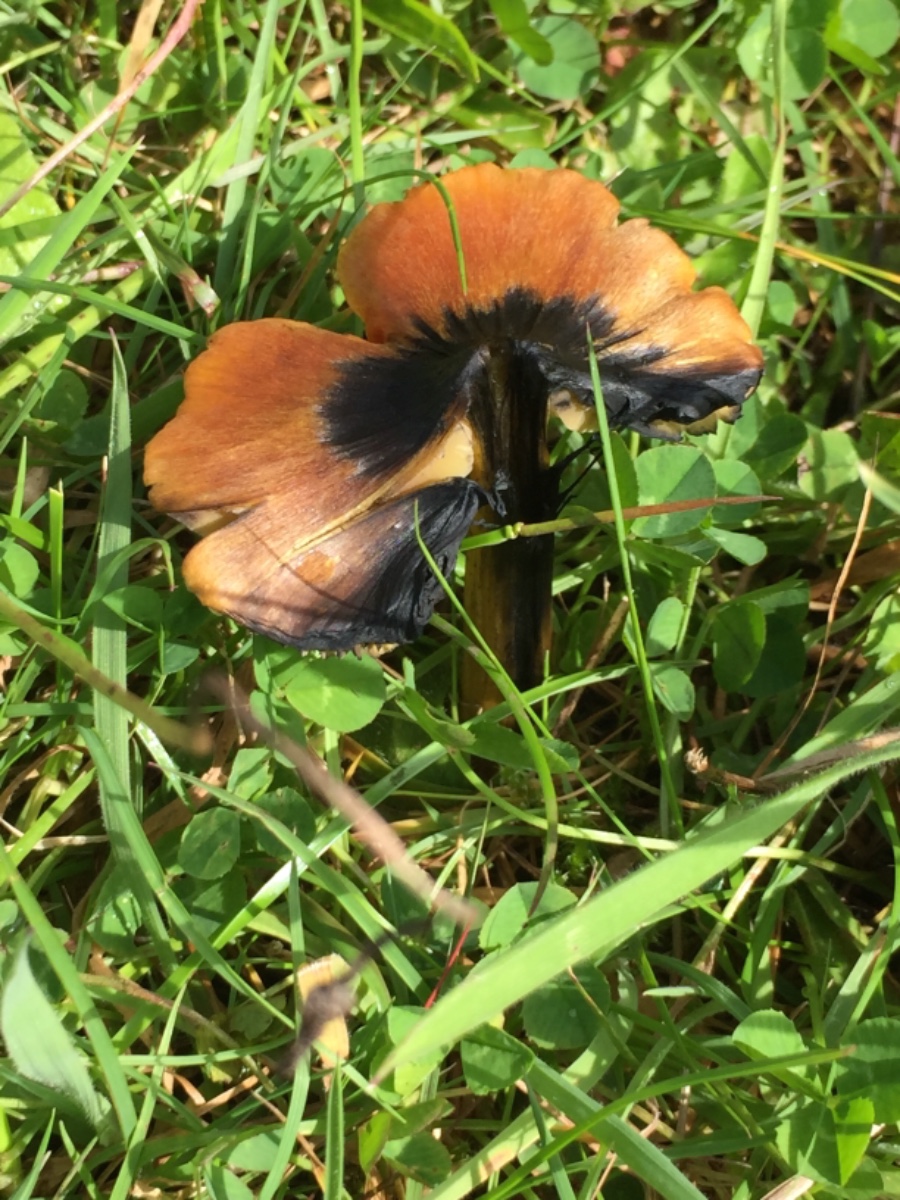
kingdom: Fungi
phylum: Basidiomycota
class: Agaricomycetes
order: Agaricales
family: Hygrophoraceae
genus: Hygrocybe
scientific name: Hygrocybe conica
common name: kegle-vokshat
